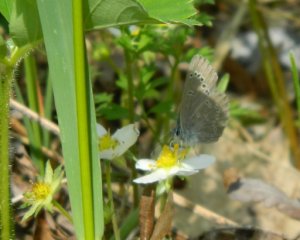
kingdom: Animalia
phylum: Arthropoda
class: Insecta
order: Lepidoptera
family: Lycaenidae
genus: Glaucopsyche
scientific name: Glaucopsyche lygdamus
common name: Silvery Blue
